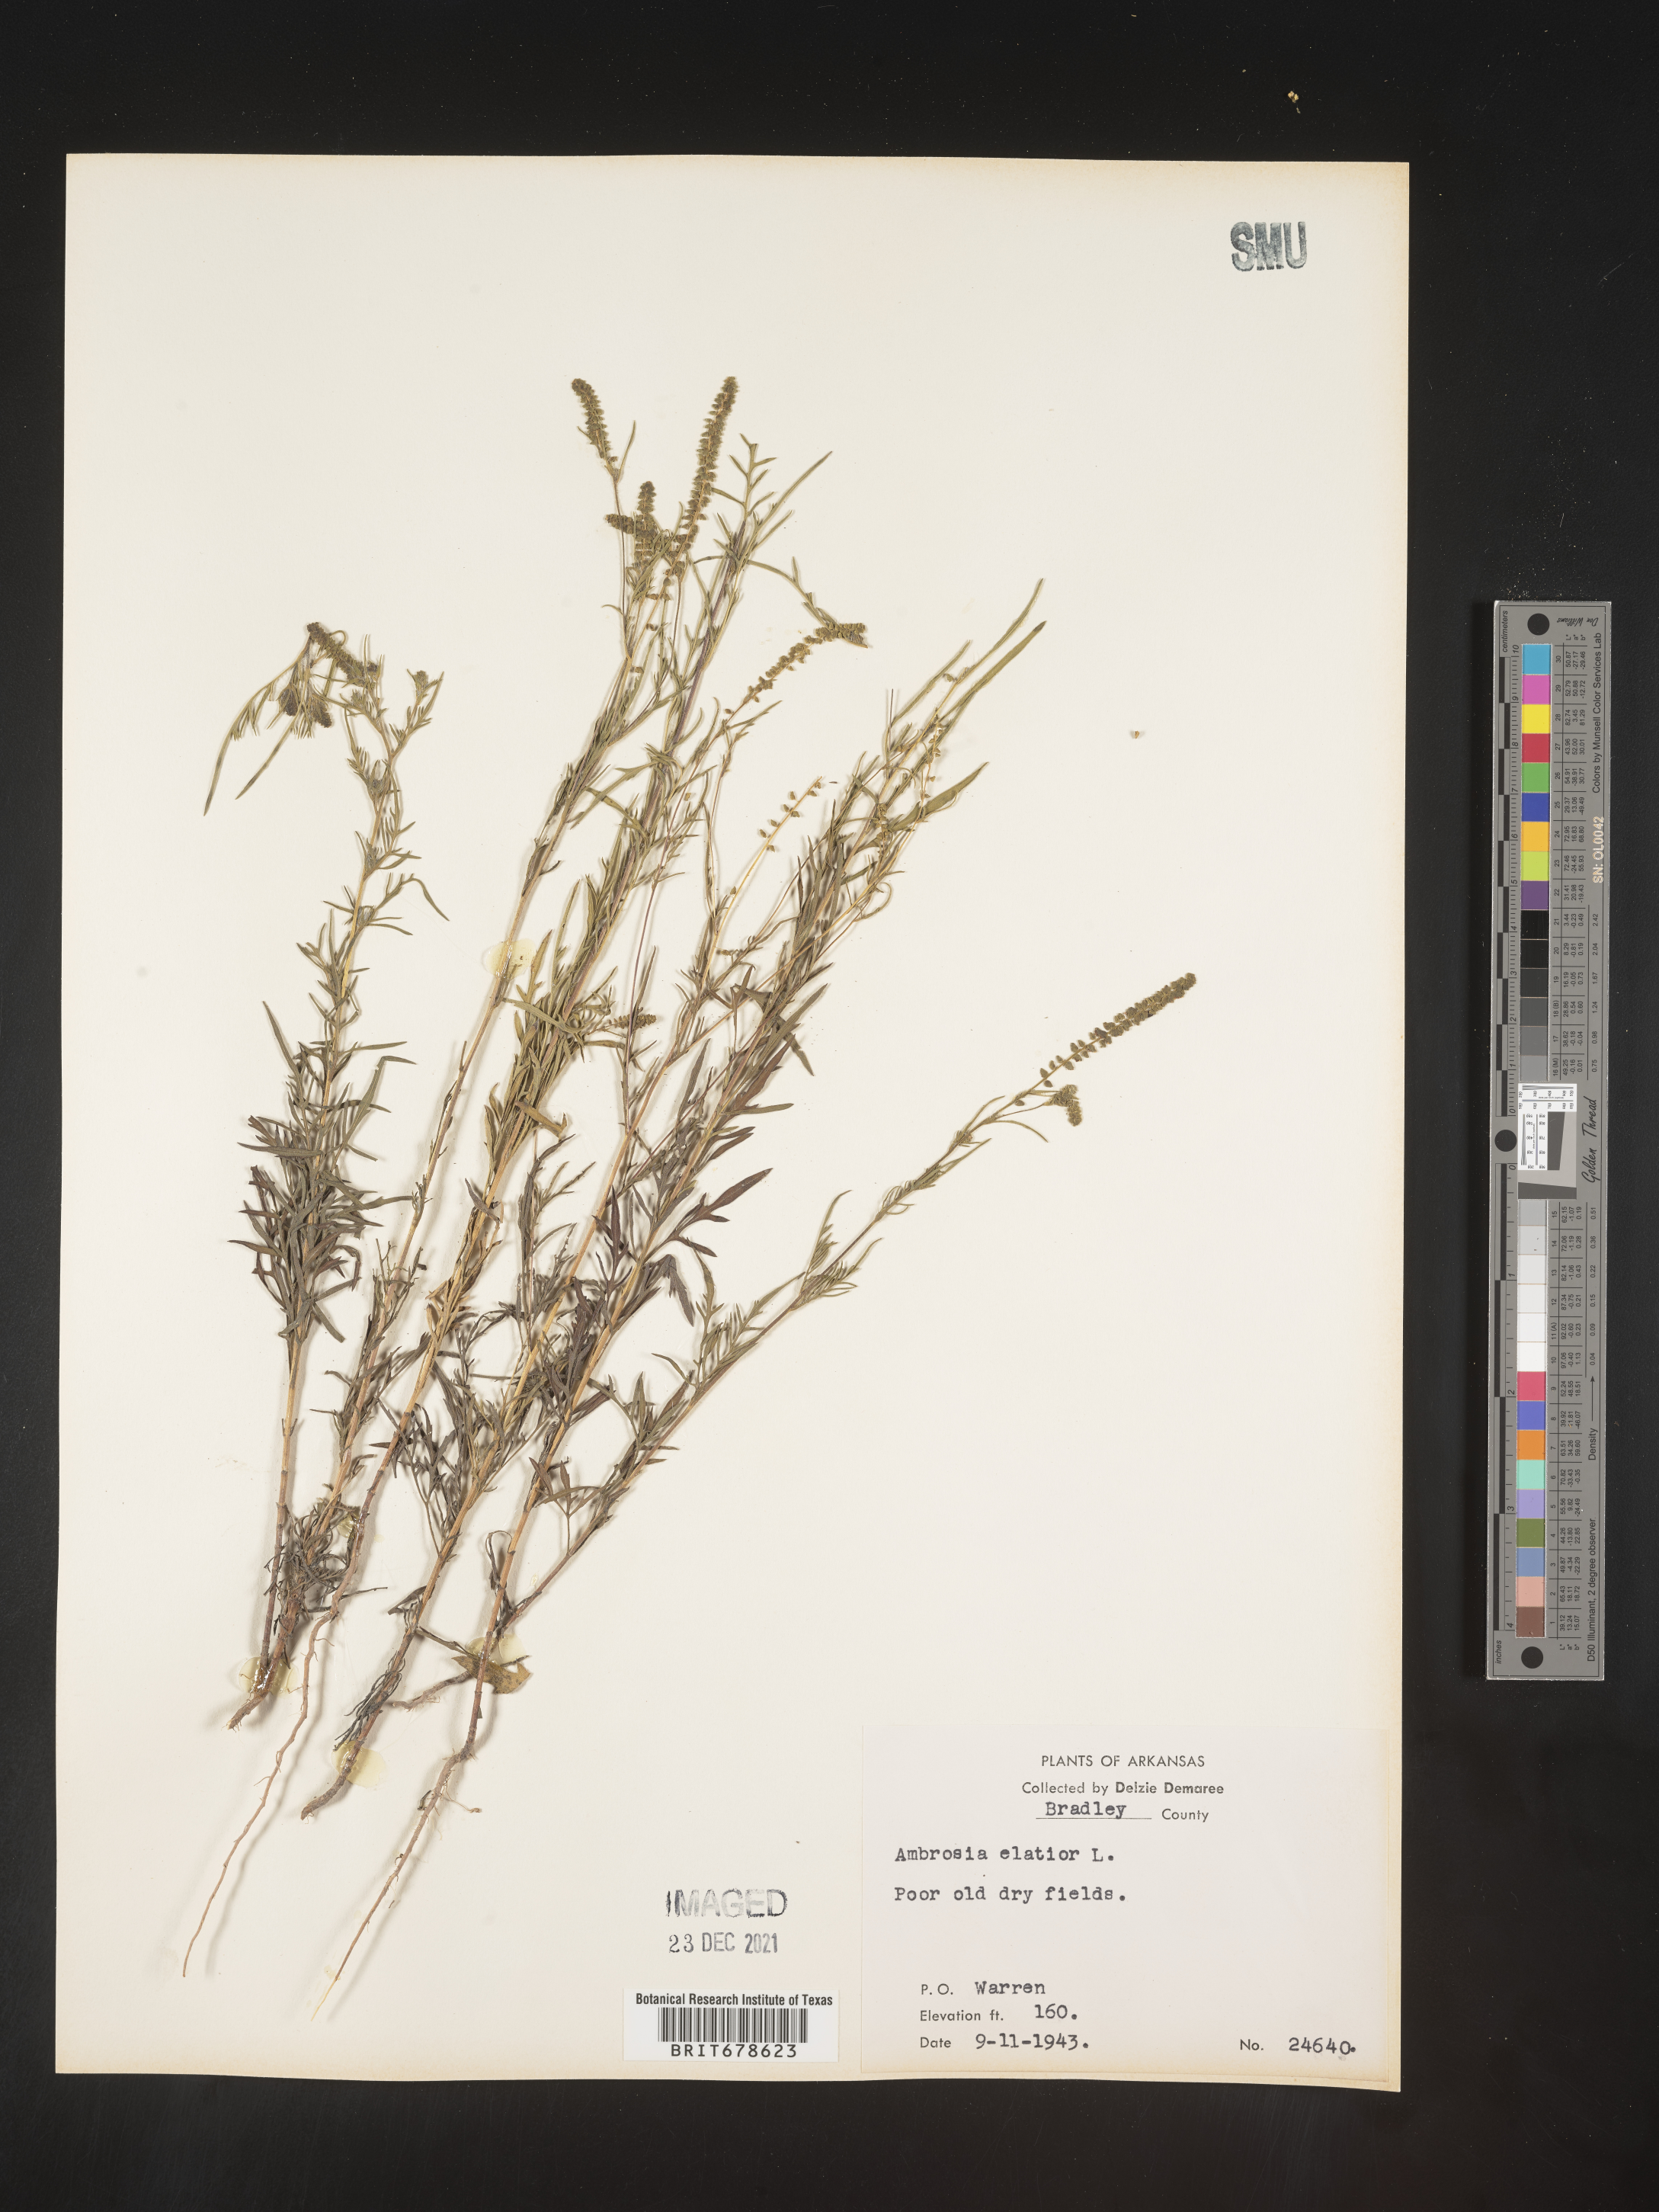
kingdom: Plantae
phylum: Tracheophyta
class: Magnoliopsida
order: Asterales
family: Asteraceae
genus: Ambrosia
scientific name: Ambrosia polystachya
